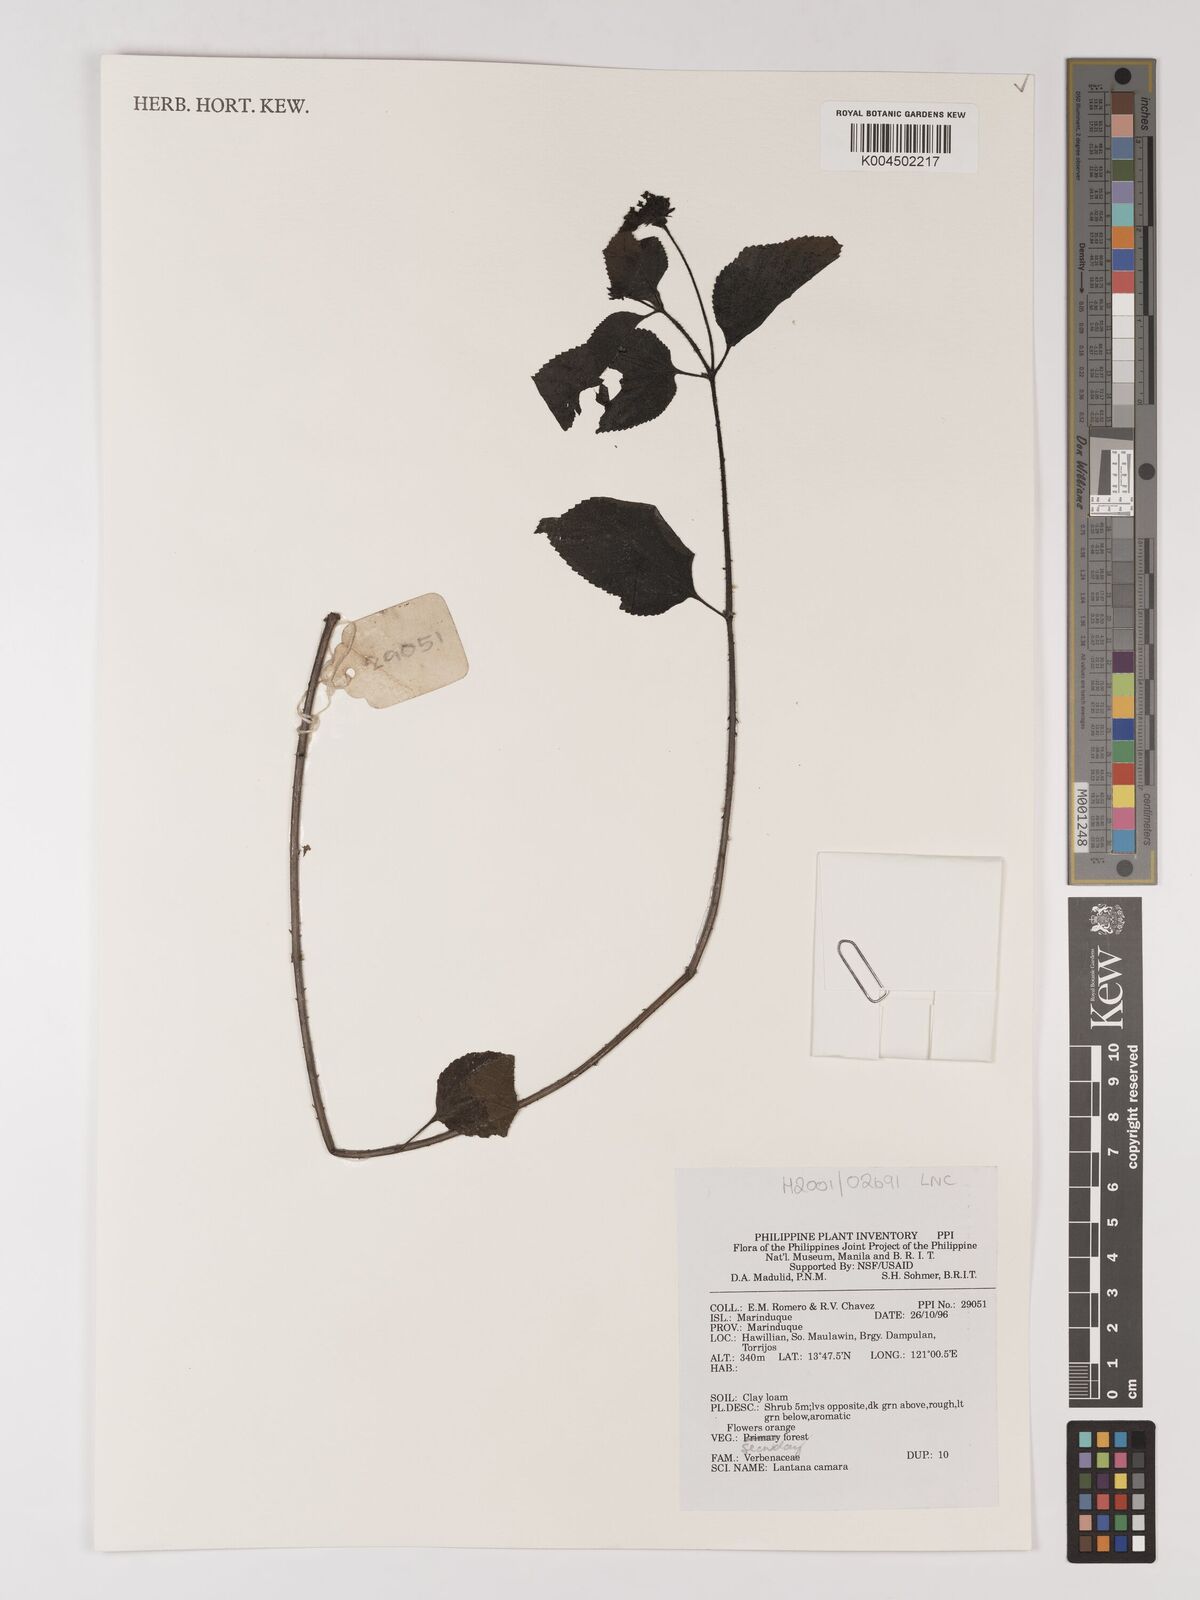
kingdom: Plantae
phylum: Tracheophyta
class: Magnoliopsida
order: Lamiales
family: Verbenaceae
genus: Lantana
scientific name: Lantana
